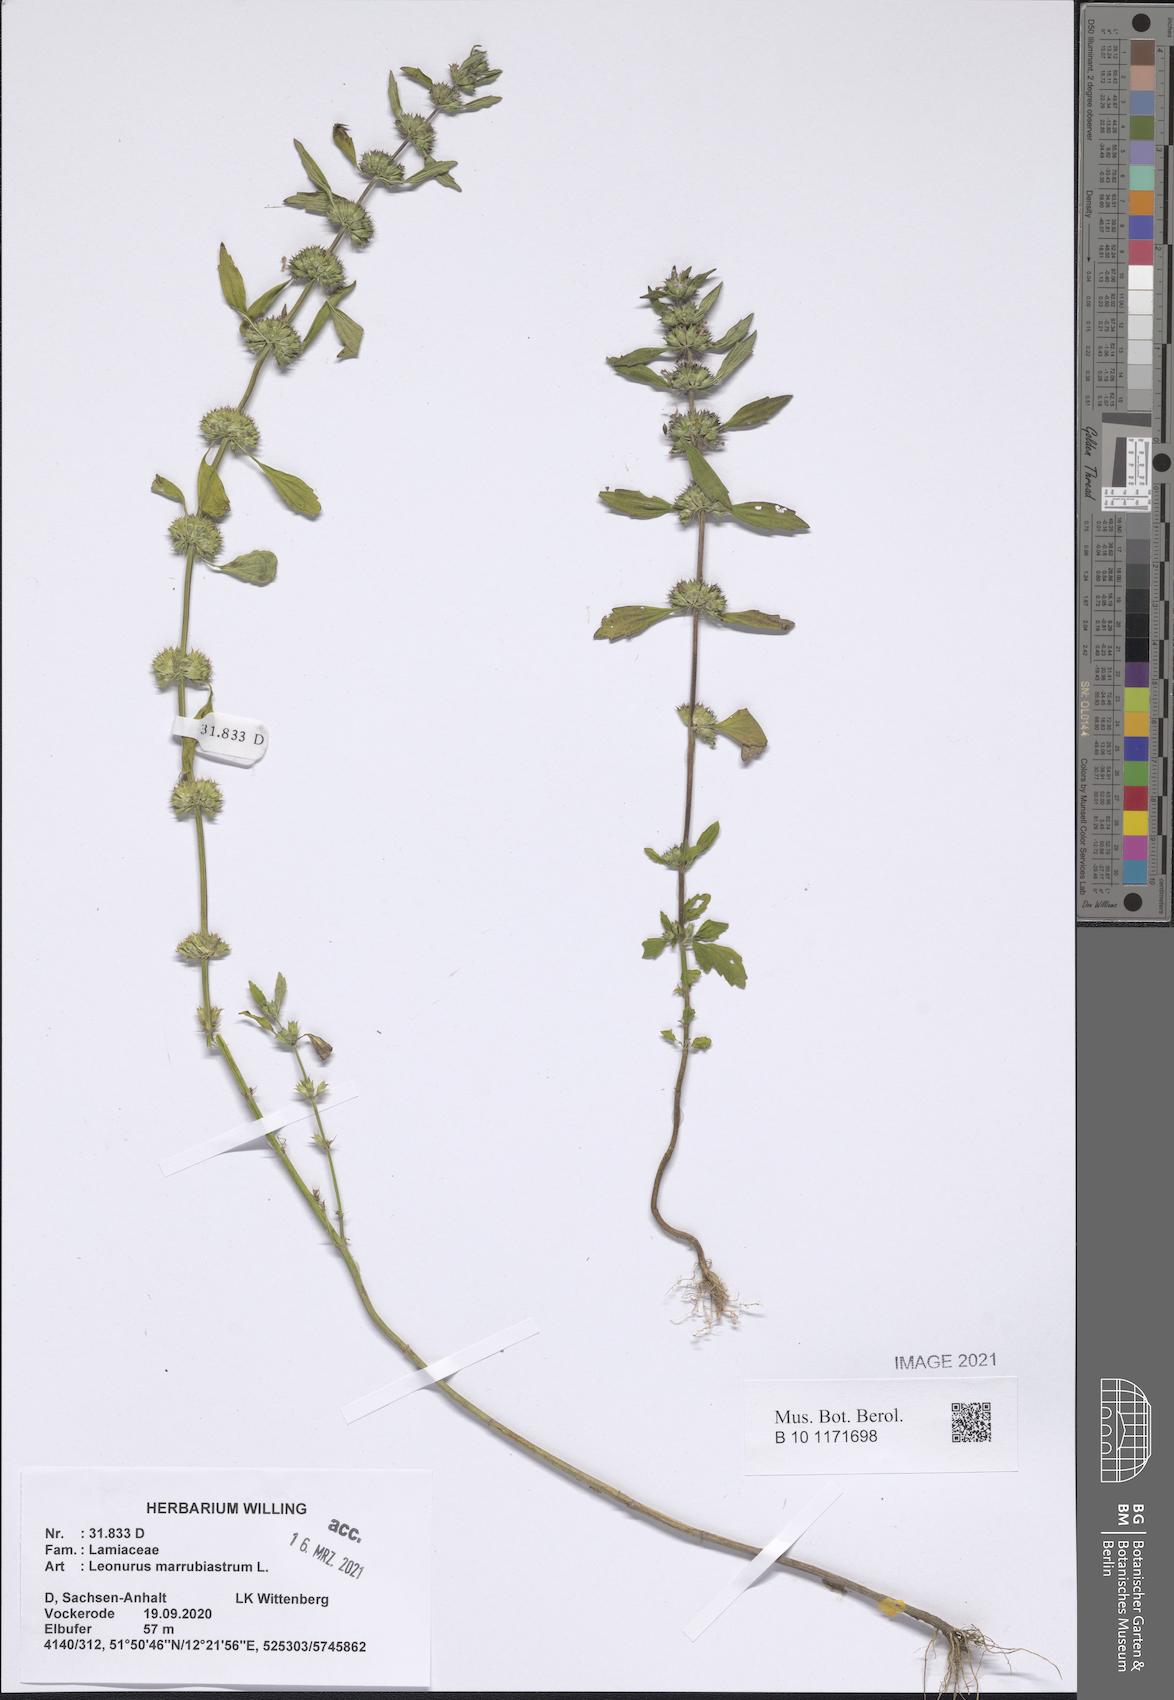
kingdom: Plantae
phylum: Tracheophyta
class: Magnoliopsida
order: Lamiales
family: Lamiaceae
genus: Chaiturus
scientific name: Chaiturus marrubiastrum
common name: Lion's tail
